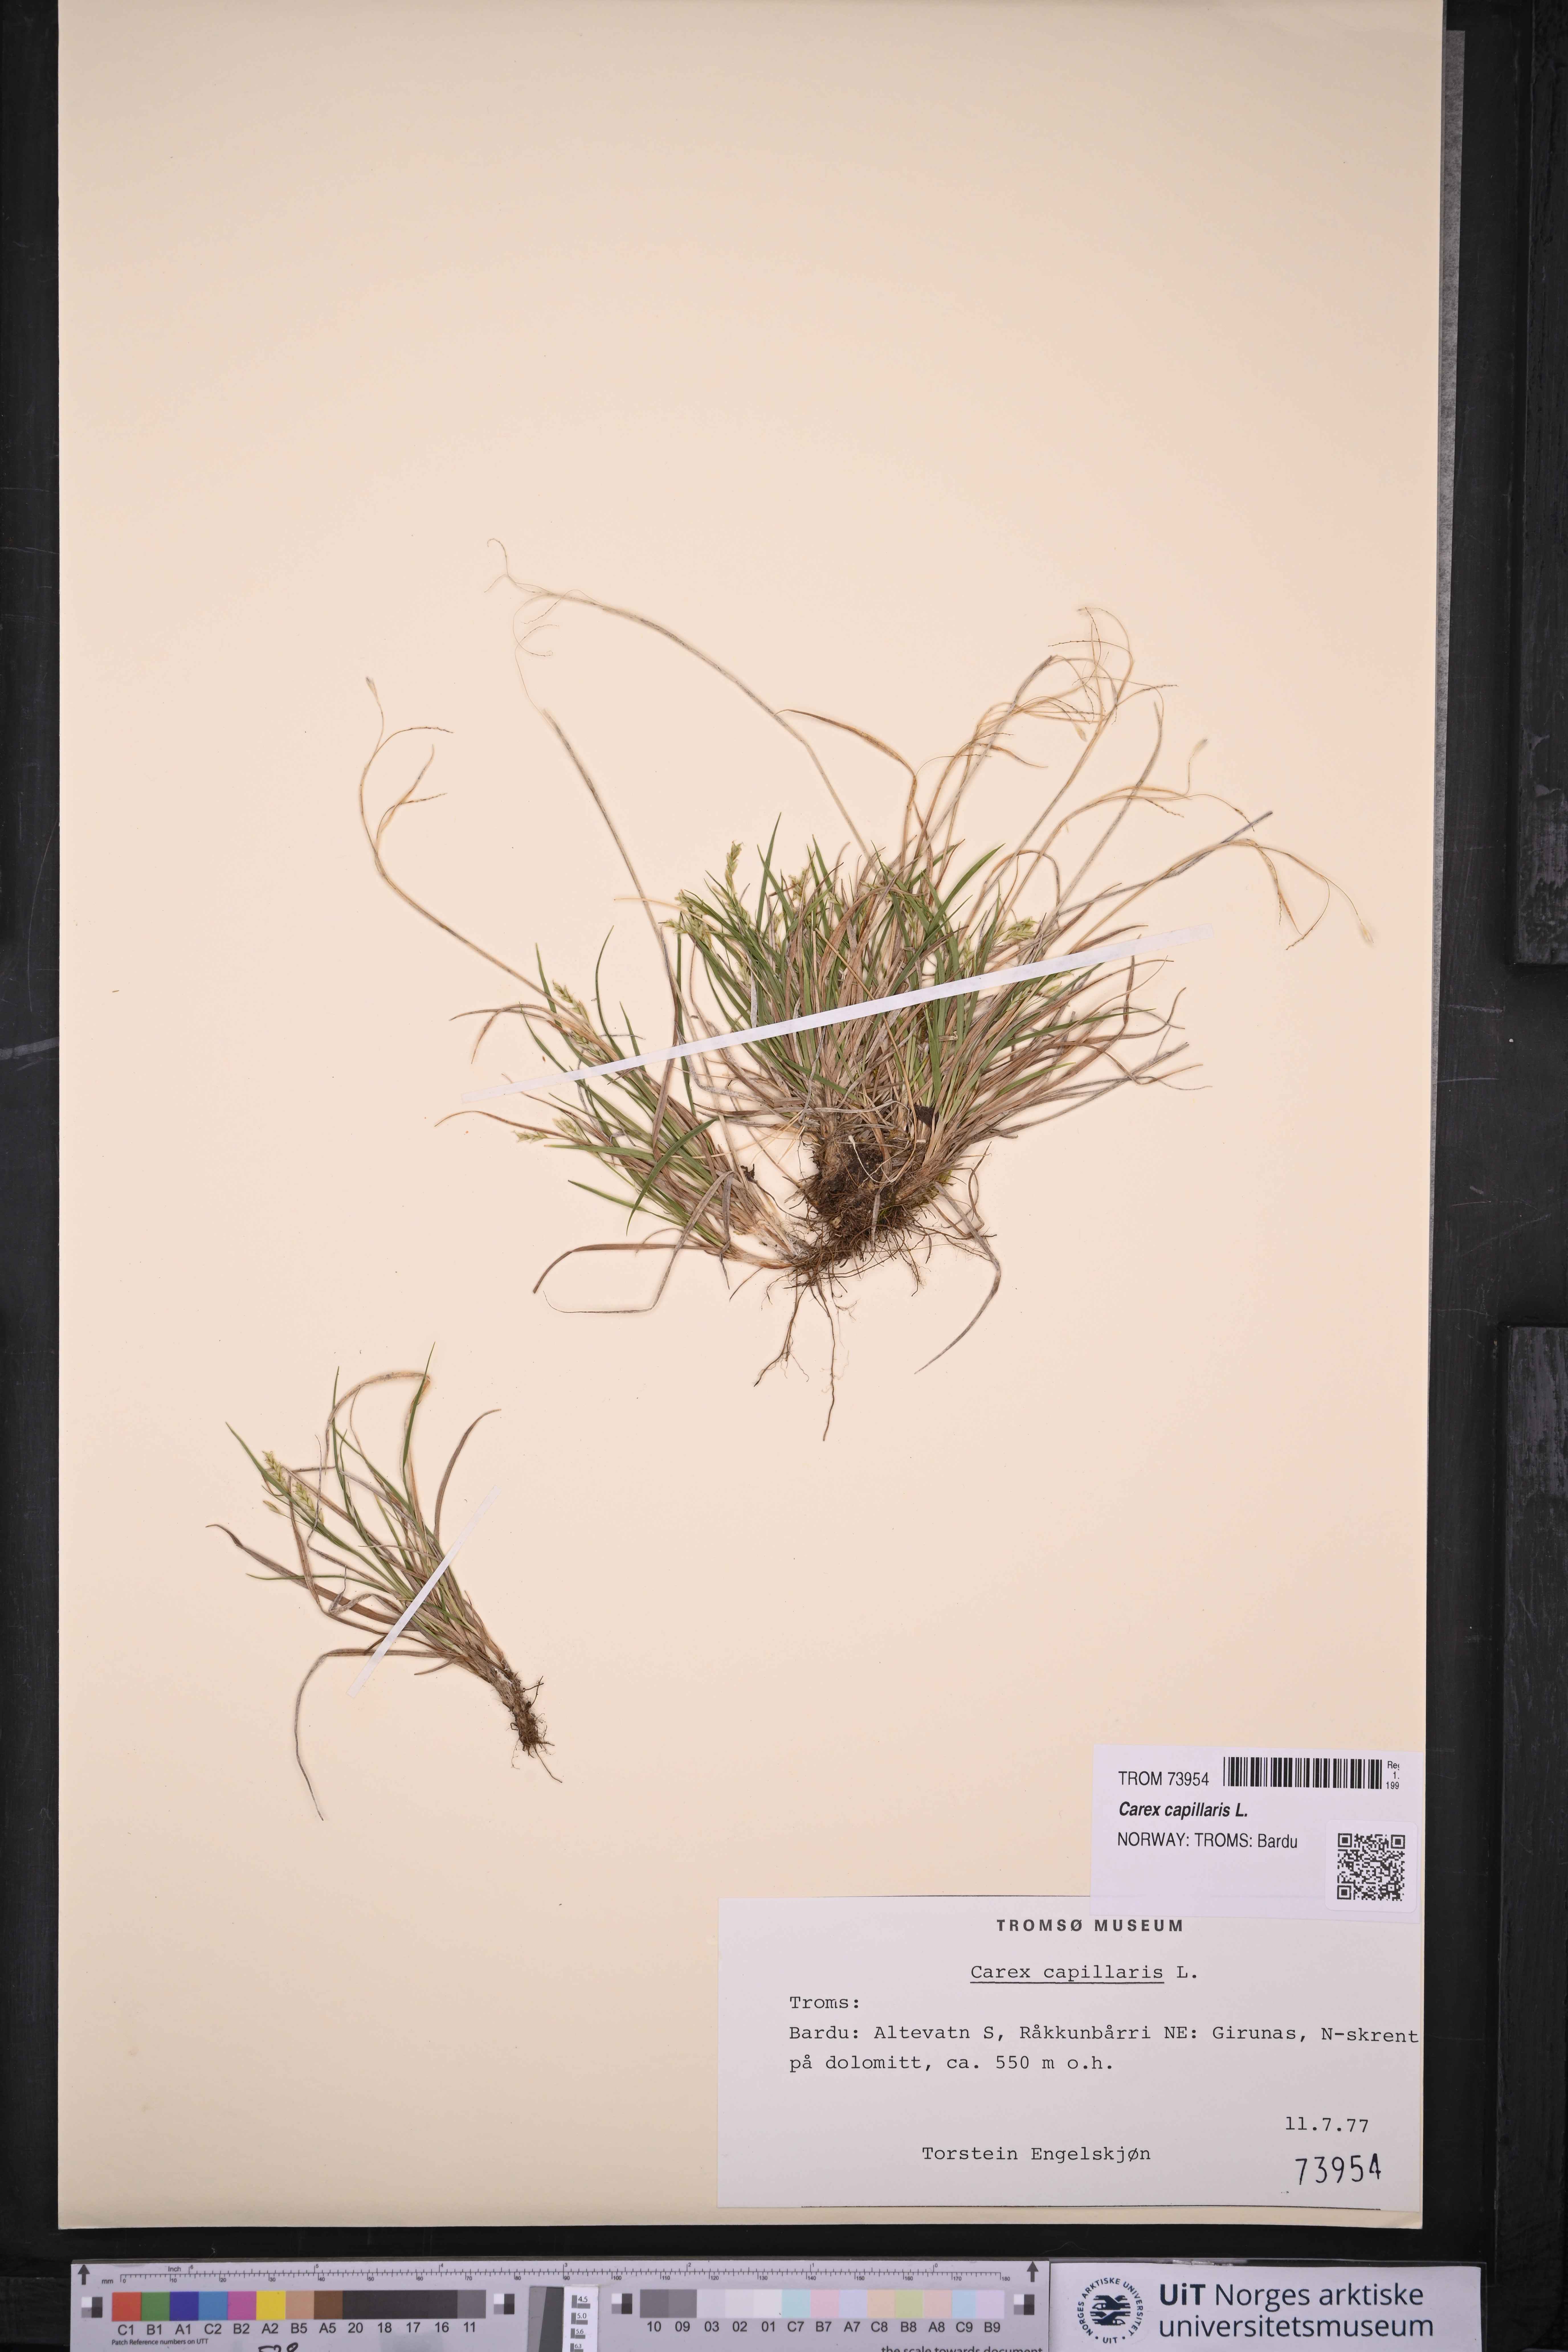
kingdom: Plantae
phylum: Tracheophyta
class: Liliopsida
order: Poales
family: Cyperaceae
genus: Carex
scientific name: Carex capillaris
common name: Hair sedge
